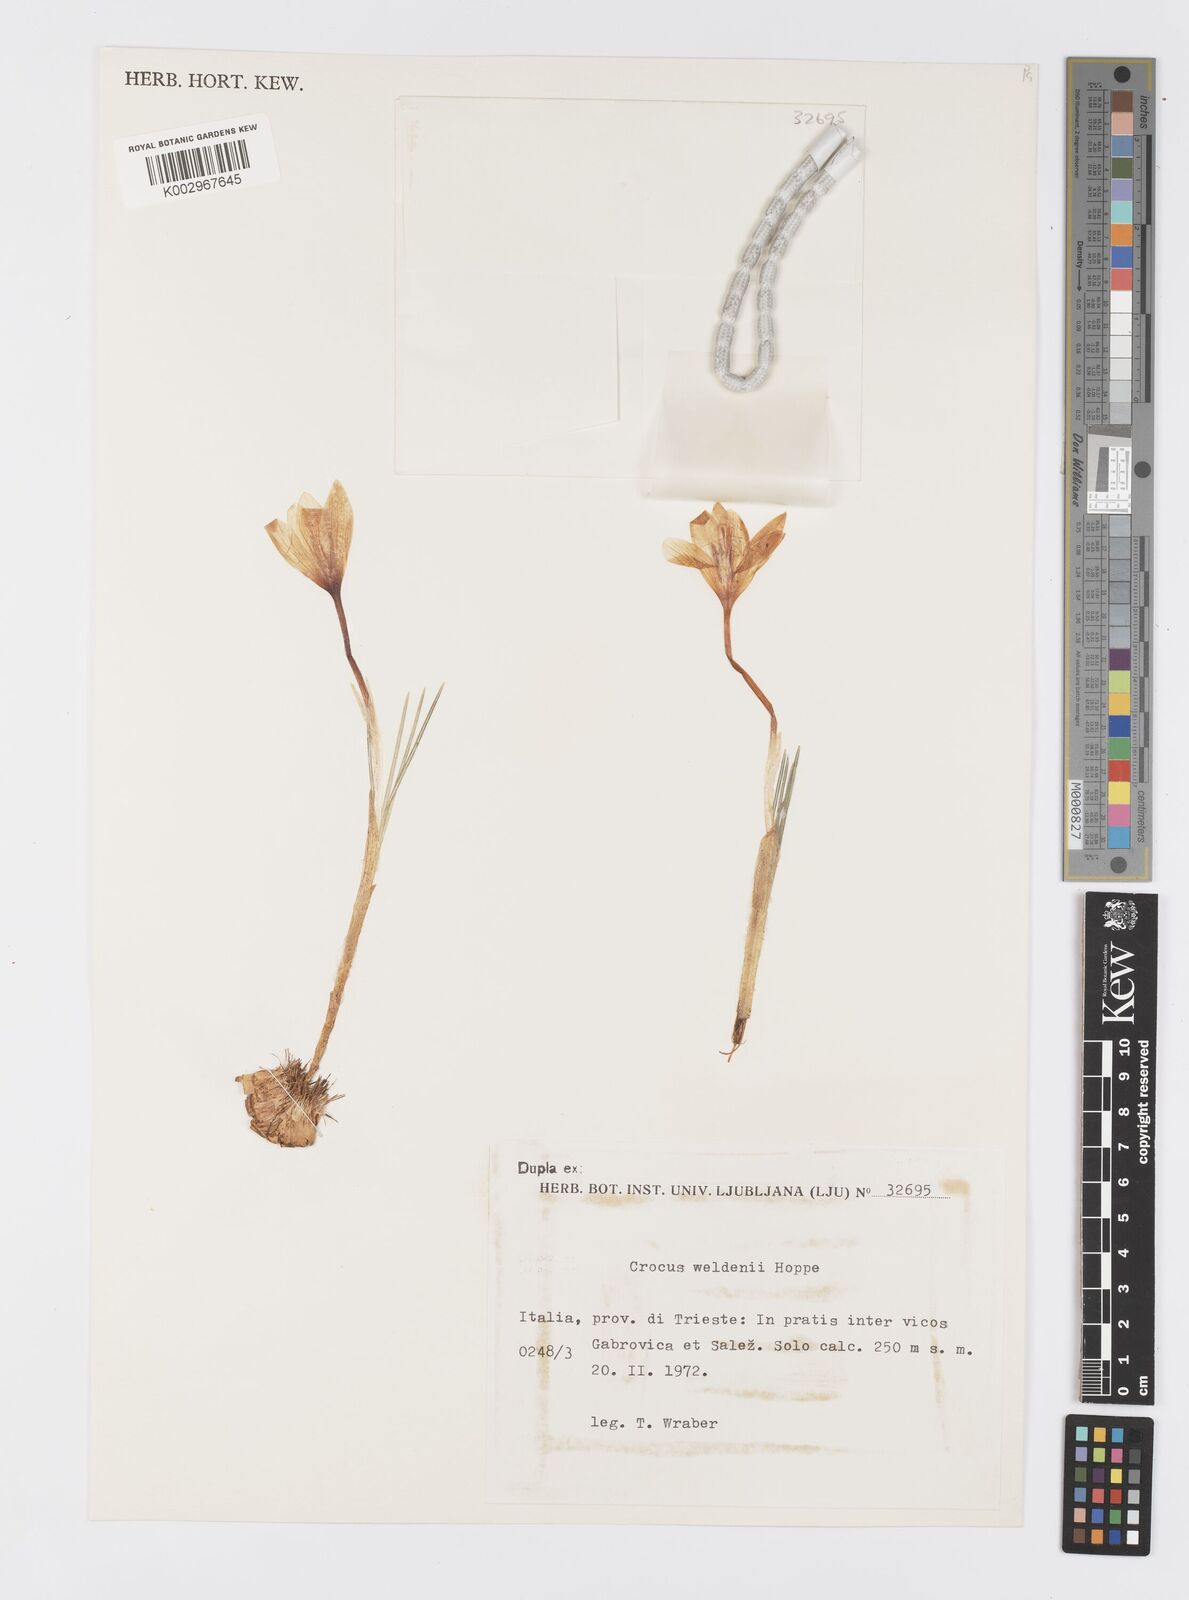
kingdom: Plantae
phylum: Tracheophyta
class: Liliopsida
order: Asparagales
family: Iridaceae
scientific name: Iridaceae
